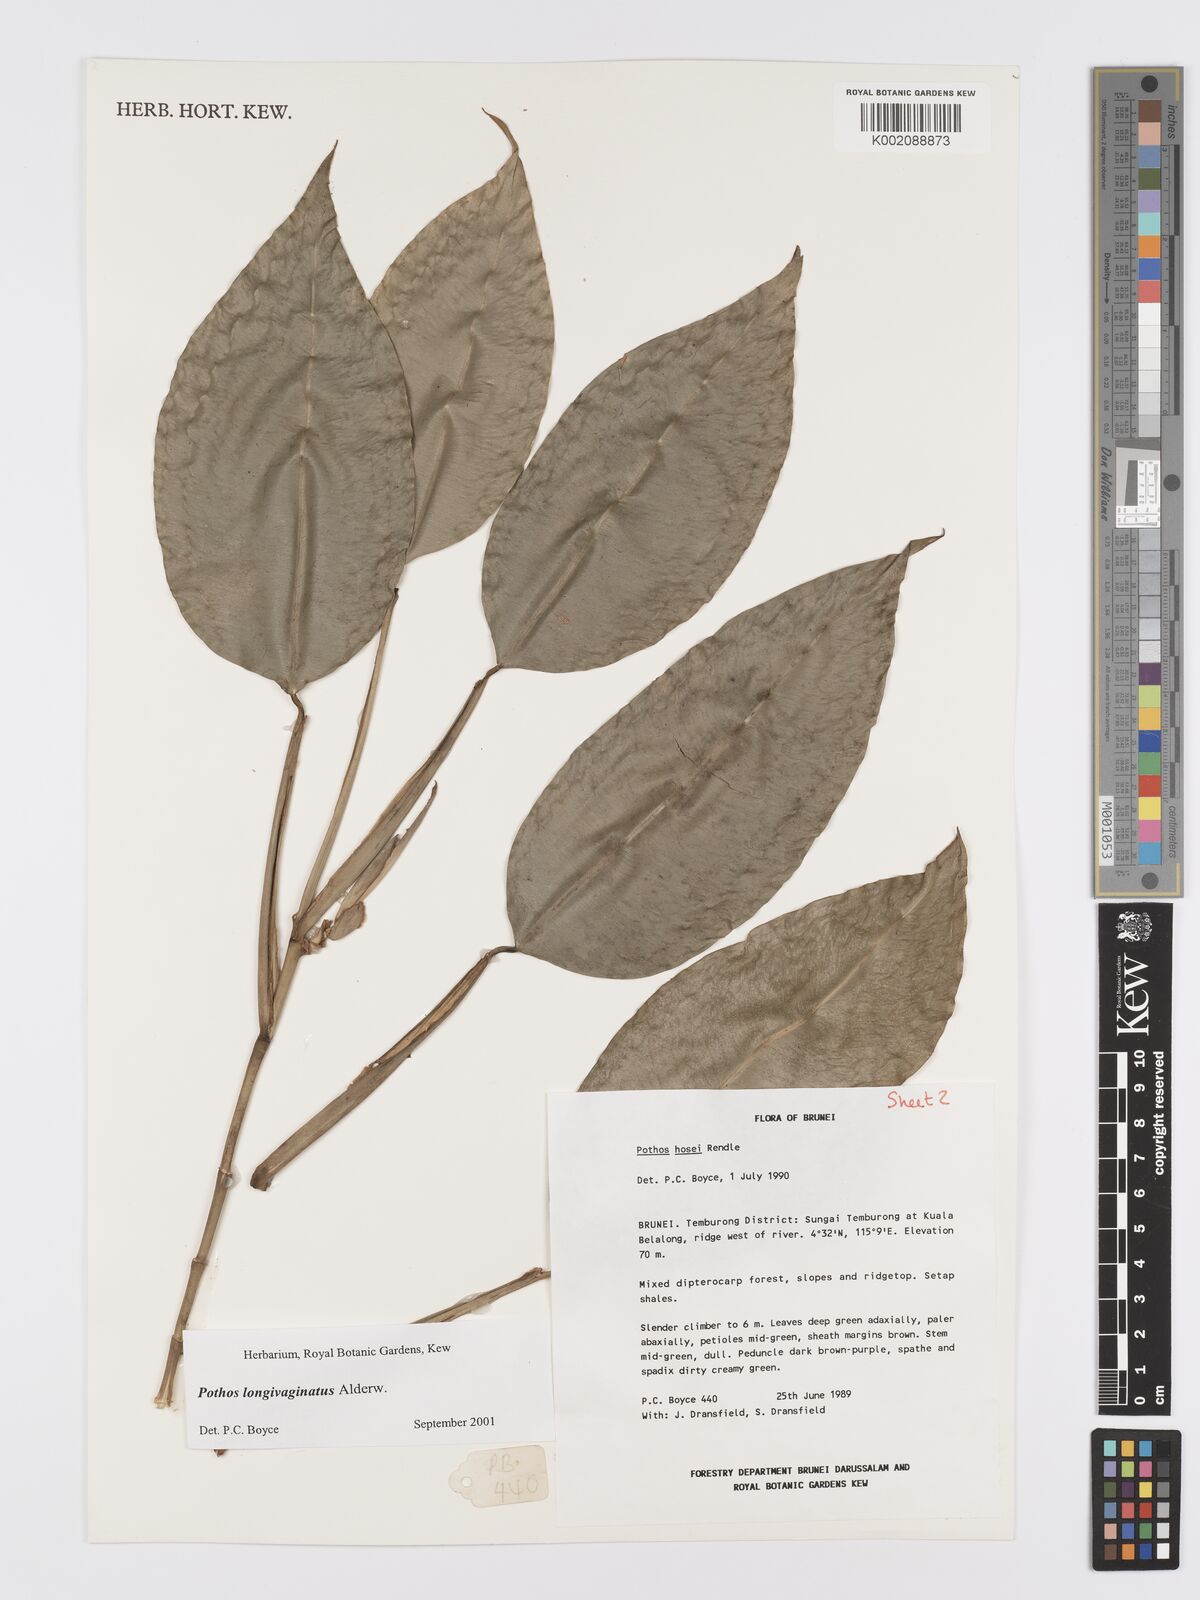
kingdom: Plantae
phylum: Tracheophyta
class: Liliopsida
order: Alismatales
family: Araceae
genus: Pothos
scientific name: Pothos longivaginatus
